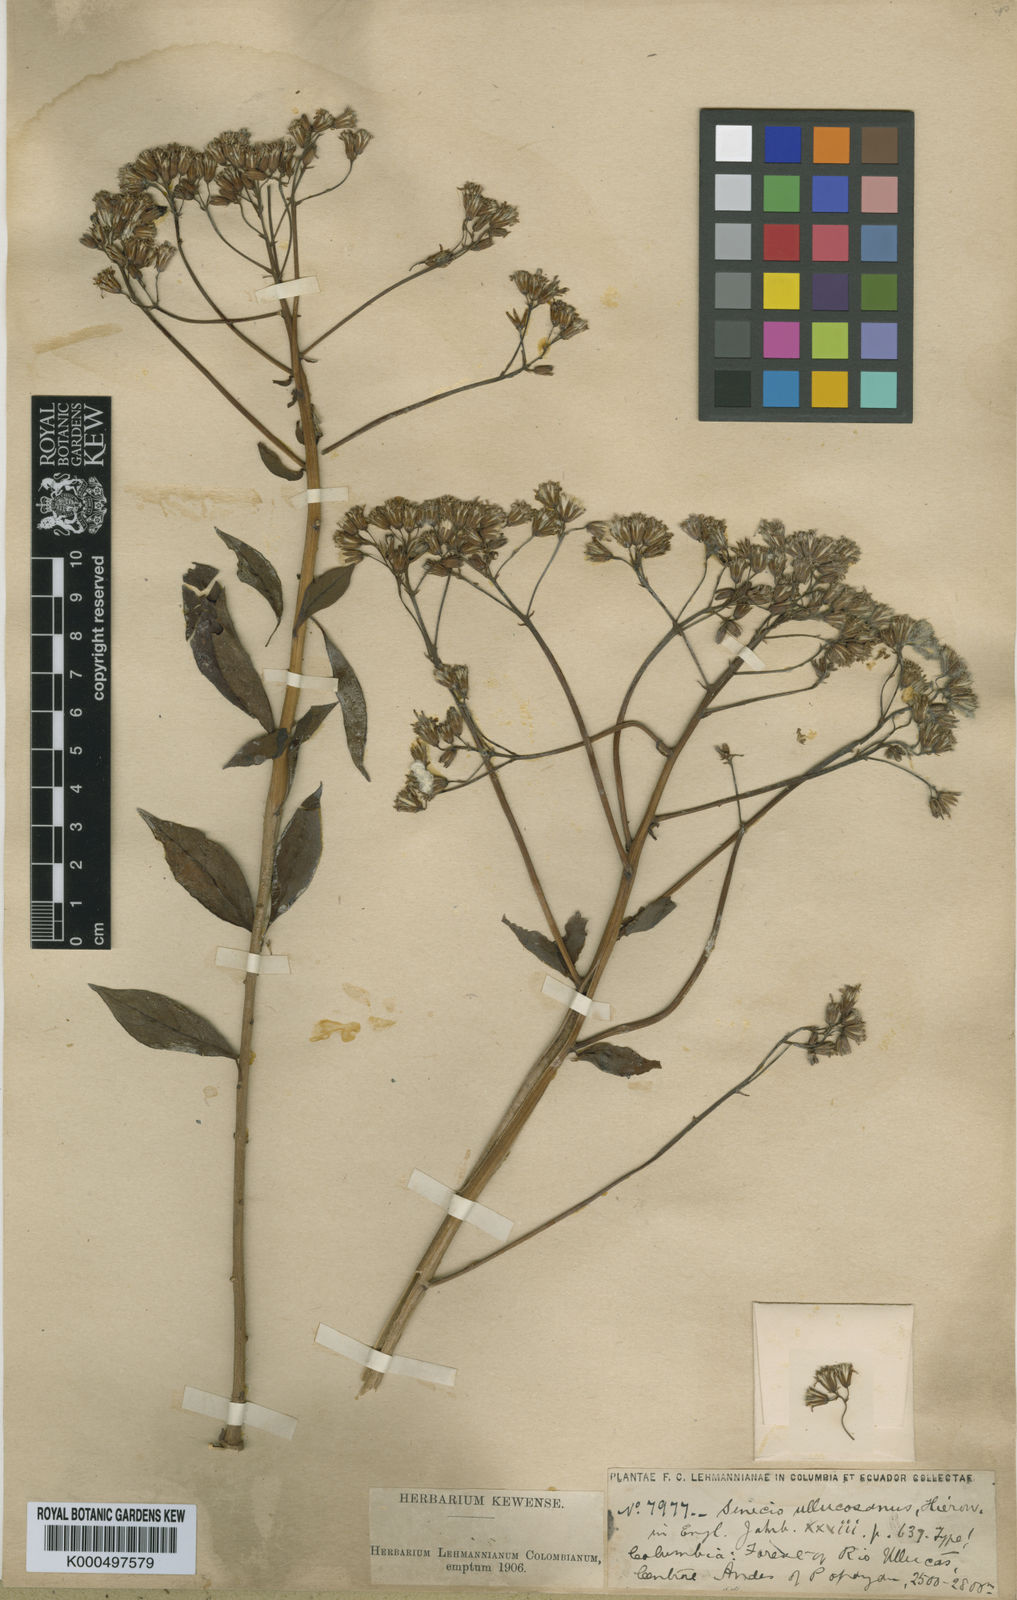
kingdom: Plantae
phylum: Tracheophyta
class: Magnoliopsida
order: Asterales
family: Asteraceae
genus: Pentacalia
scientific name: Pentacalia ullucosana
